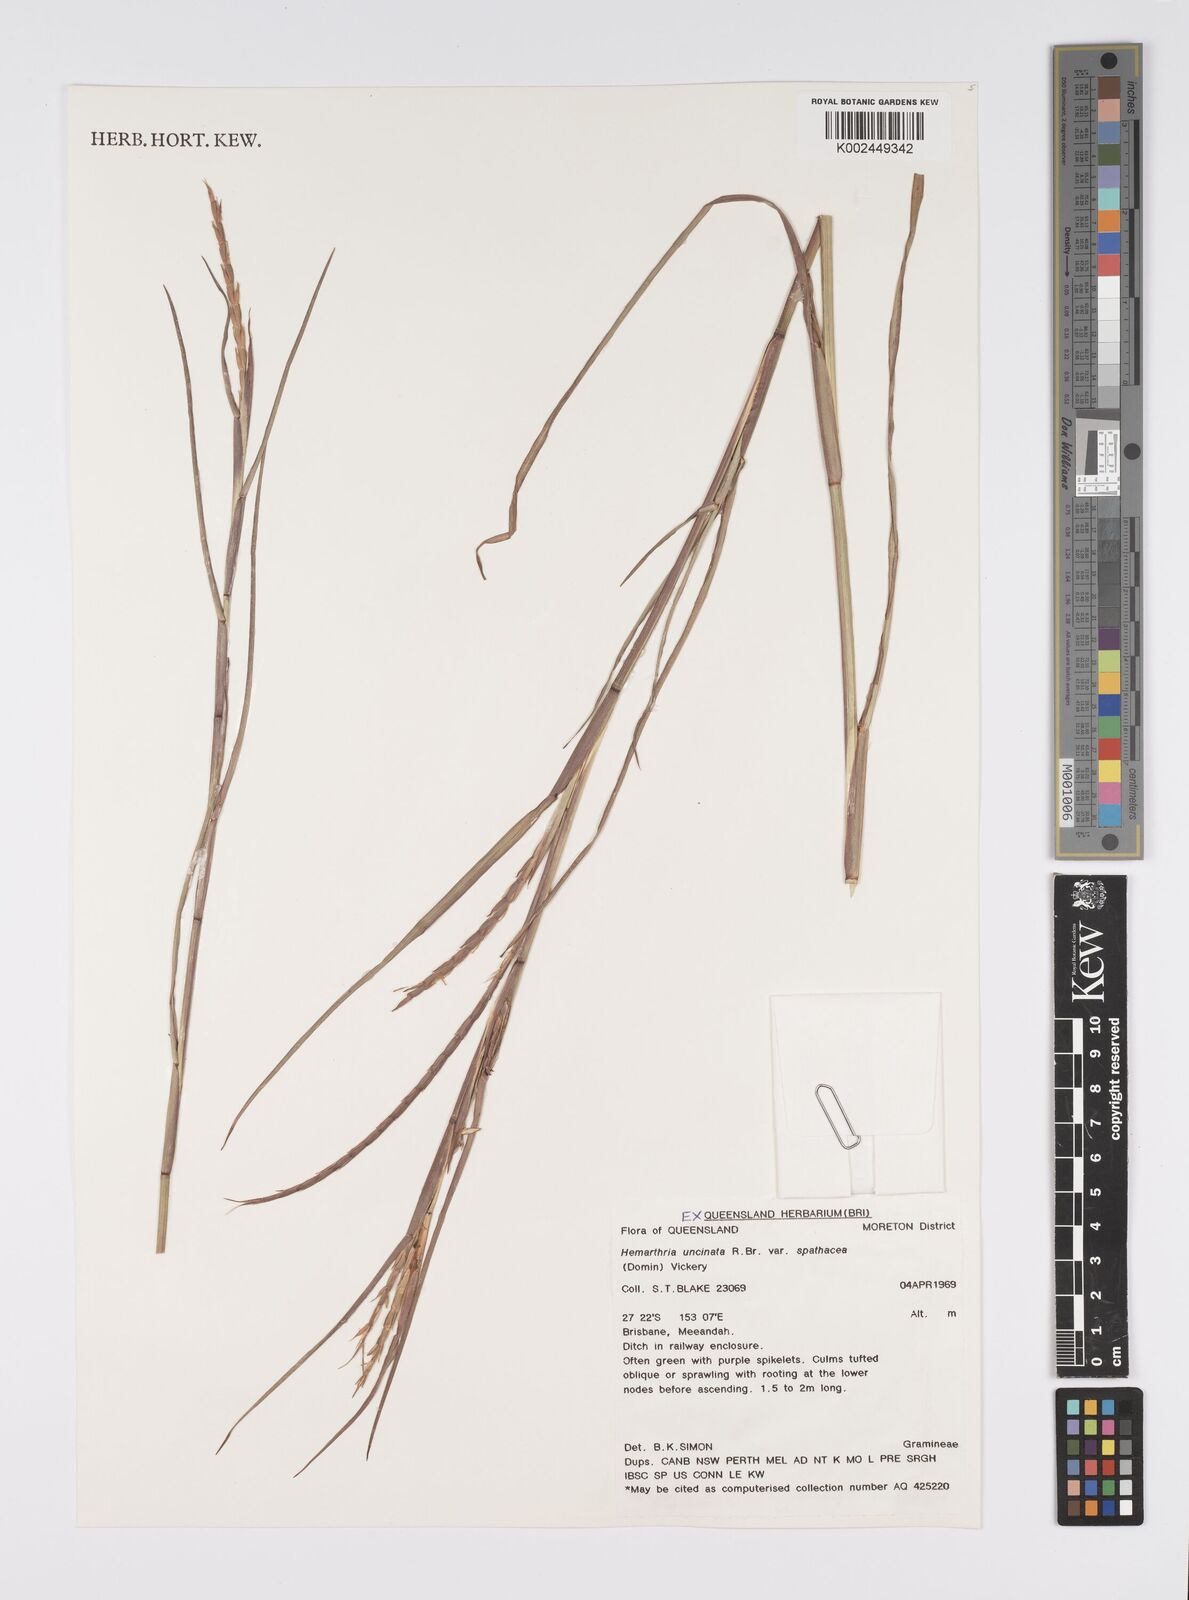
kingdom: Plantae
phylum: Tracheophyta
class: Liliopsida
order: Poales
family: Poaceae
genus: Hemarthria
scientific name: Hemarthria uncinata
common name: Matgrass
